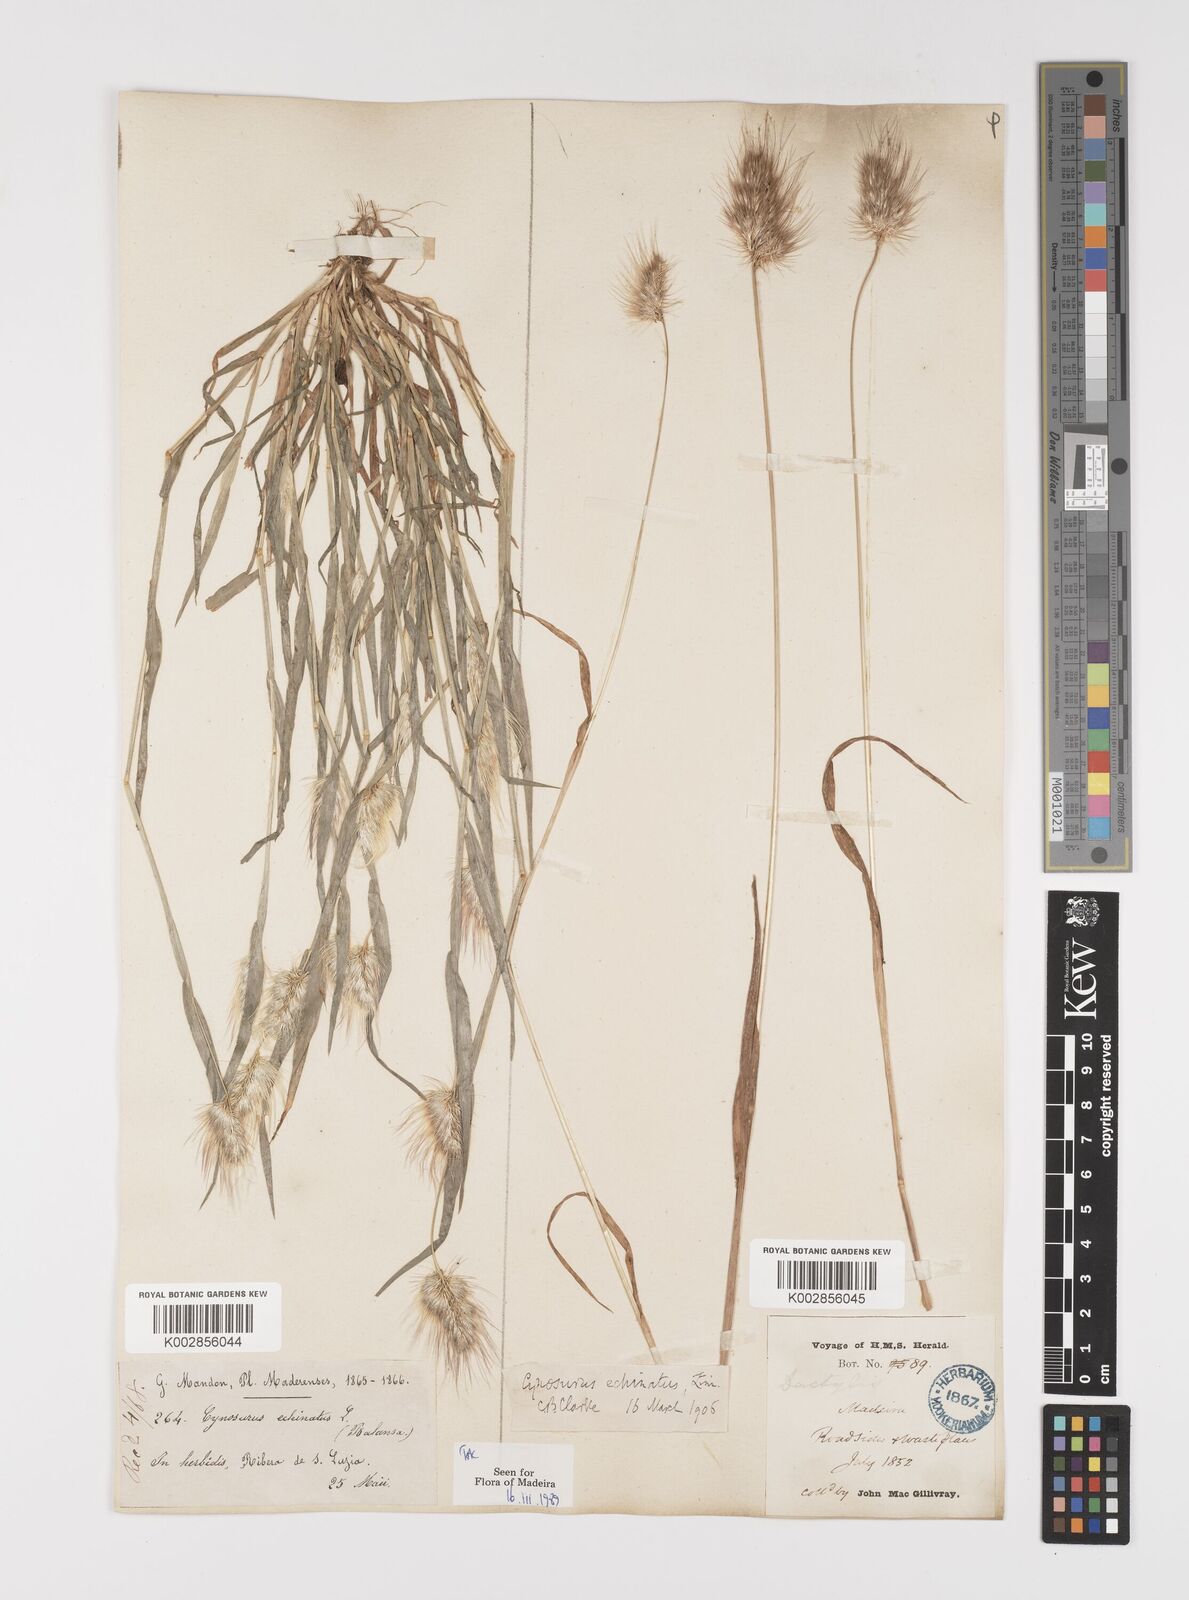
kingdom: Plantae
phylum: Tracheophyta
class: Liliopsida
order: Poales
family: Poaceae
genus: Cynosurus
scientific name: Cynosurus echinatus
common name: Rough dog's-tail
